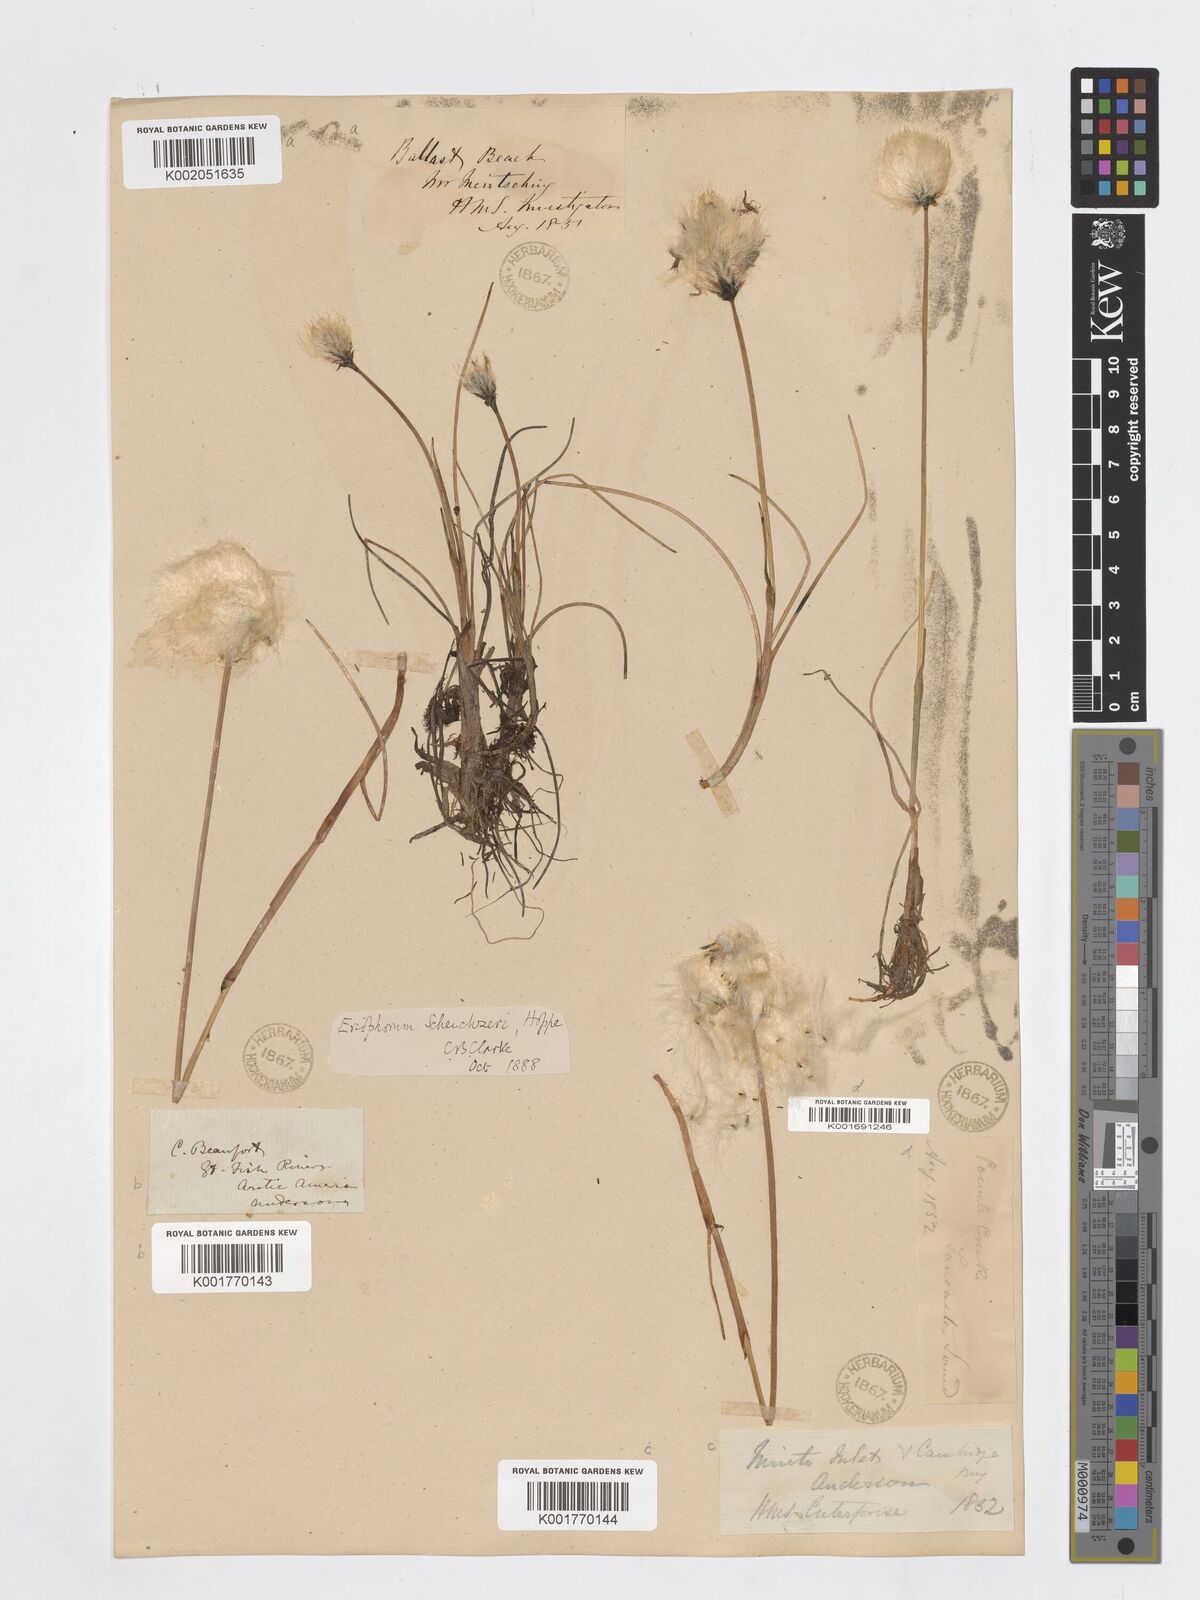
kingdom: Plantae
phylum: Tracheophyta
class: Liliopsida
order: Poales
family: Cyperaceae
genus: Eriophorum
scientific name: Eriophorum scheuchzeri
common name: Scheuchzer's cottongrass
